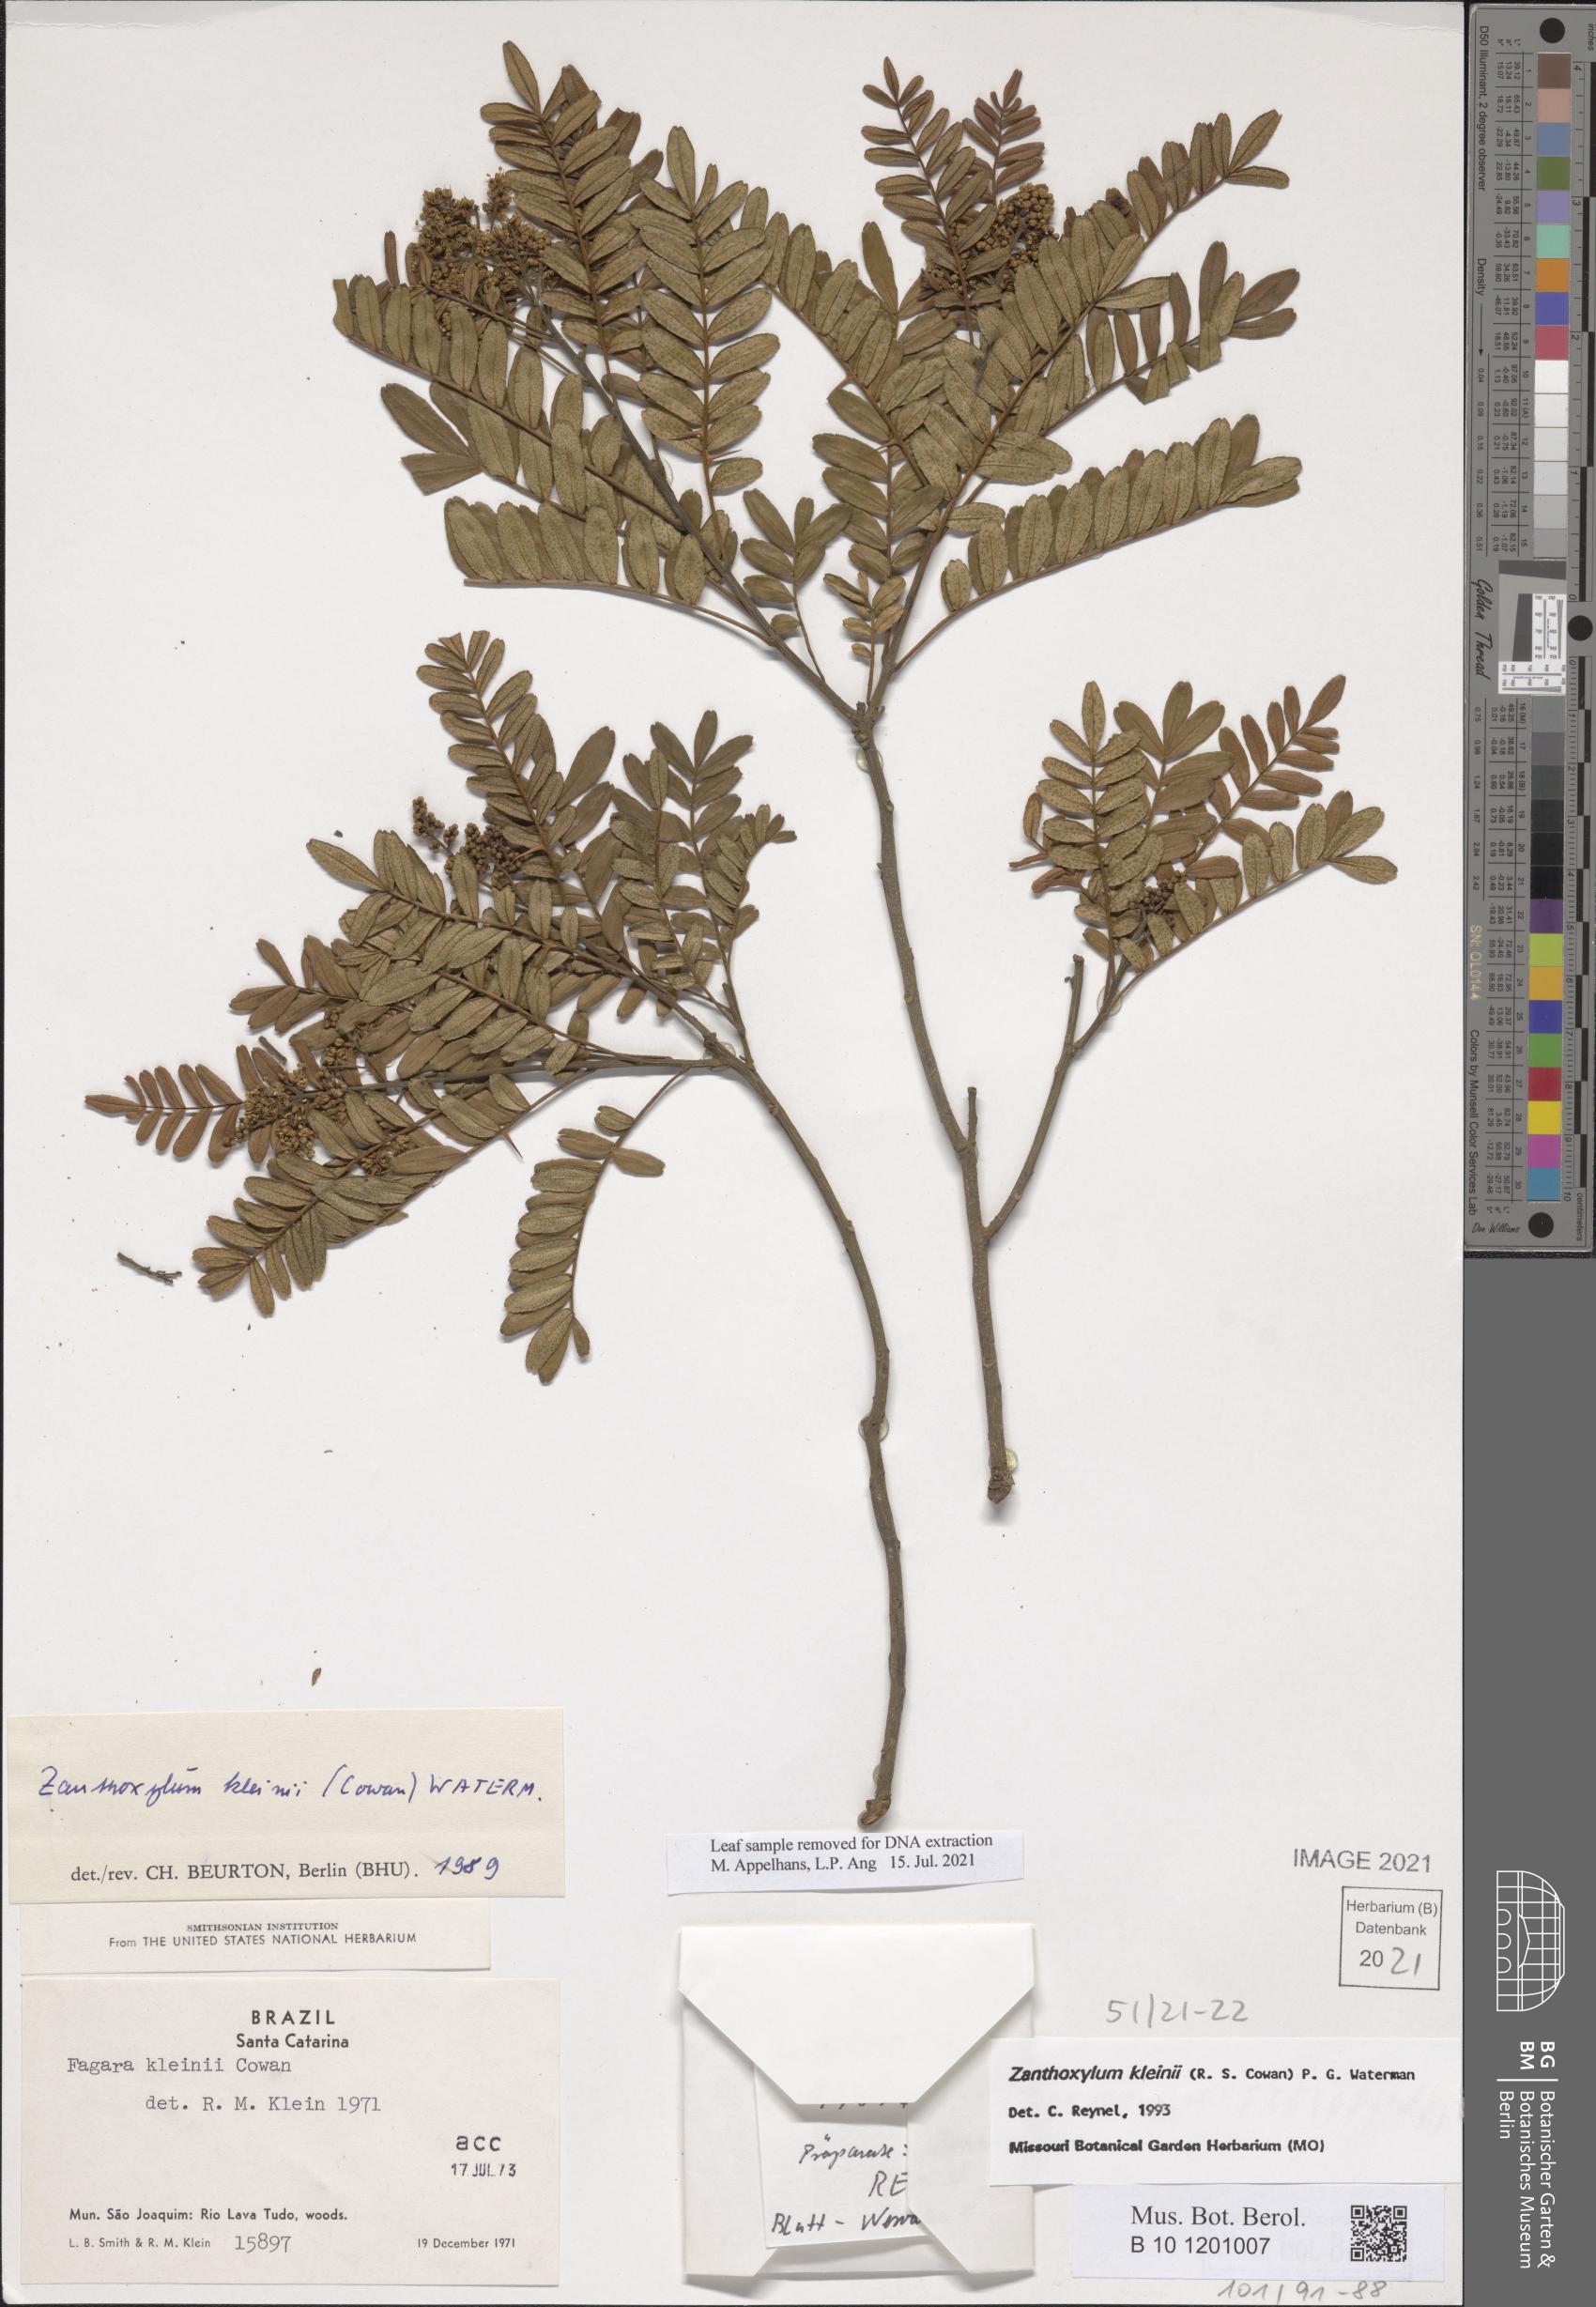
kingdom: Plantae
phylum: Tracheophyta
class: Magnoliopsida
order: Sapindales
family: Rutaceae
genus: Zanthoxylum
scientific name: Zanthoxylum kleinii
